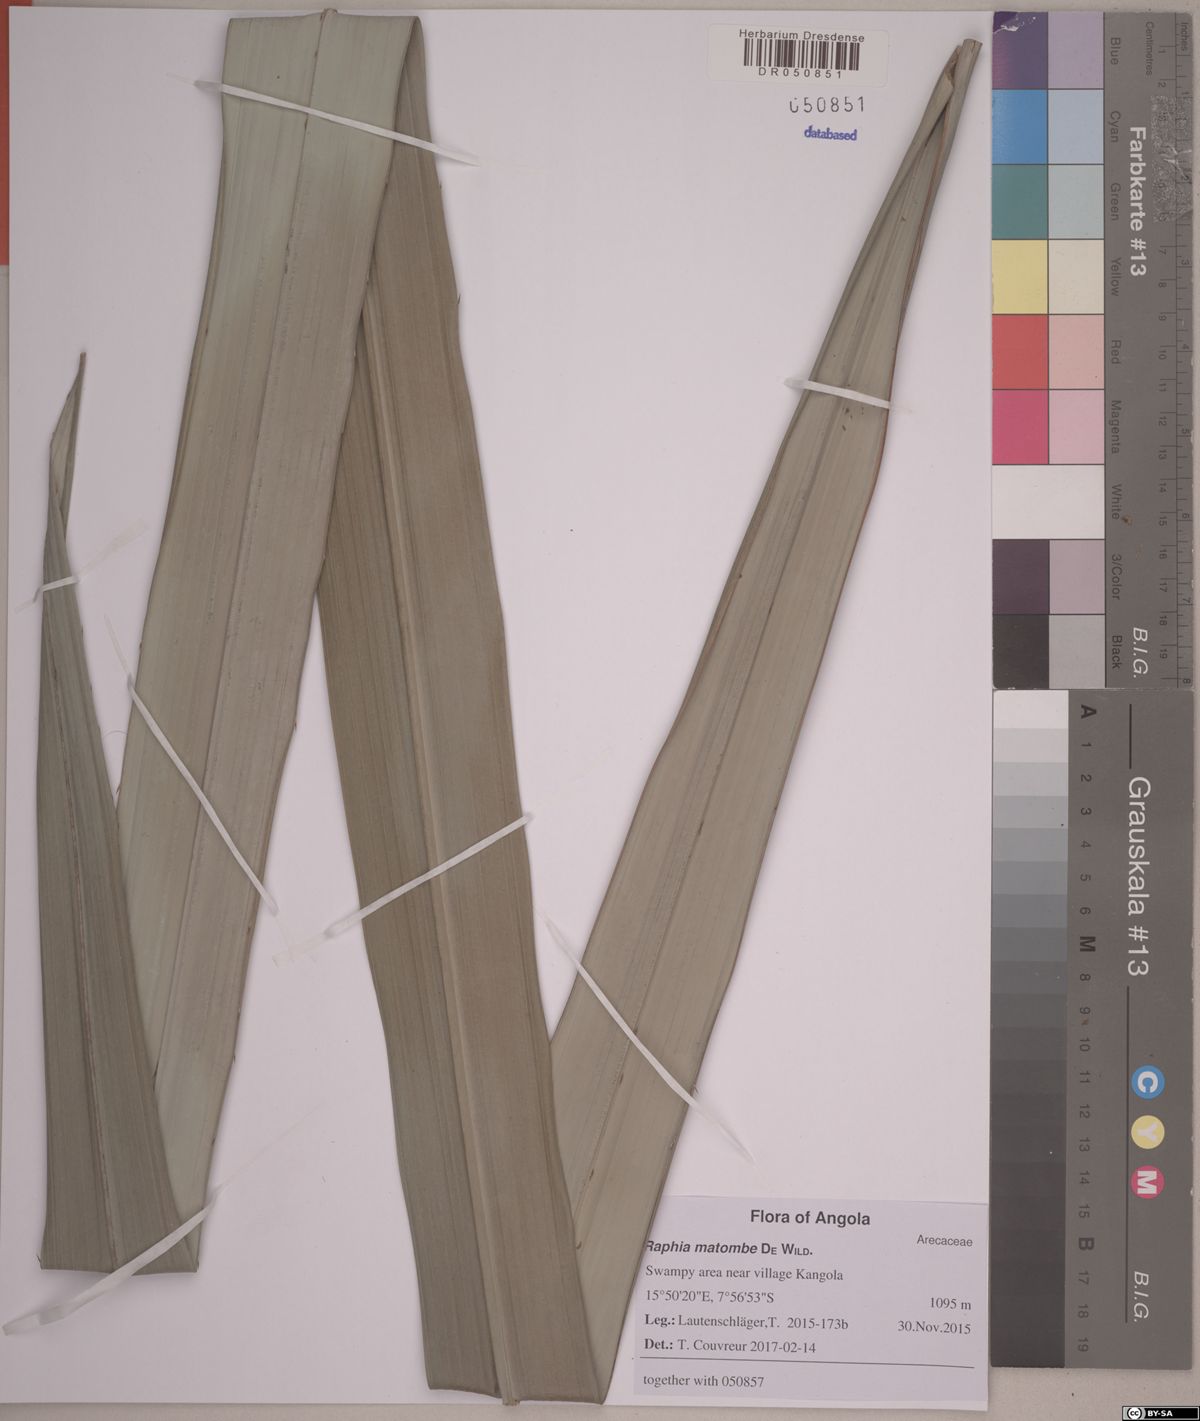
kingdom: Plantae
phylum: Tracheophyta
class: Liliopsida
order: Arecales
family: Arecaceae
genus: Raphia
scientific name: Raphia matombe
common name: Raphia palm
